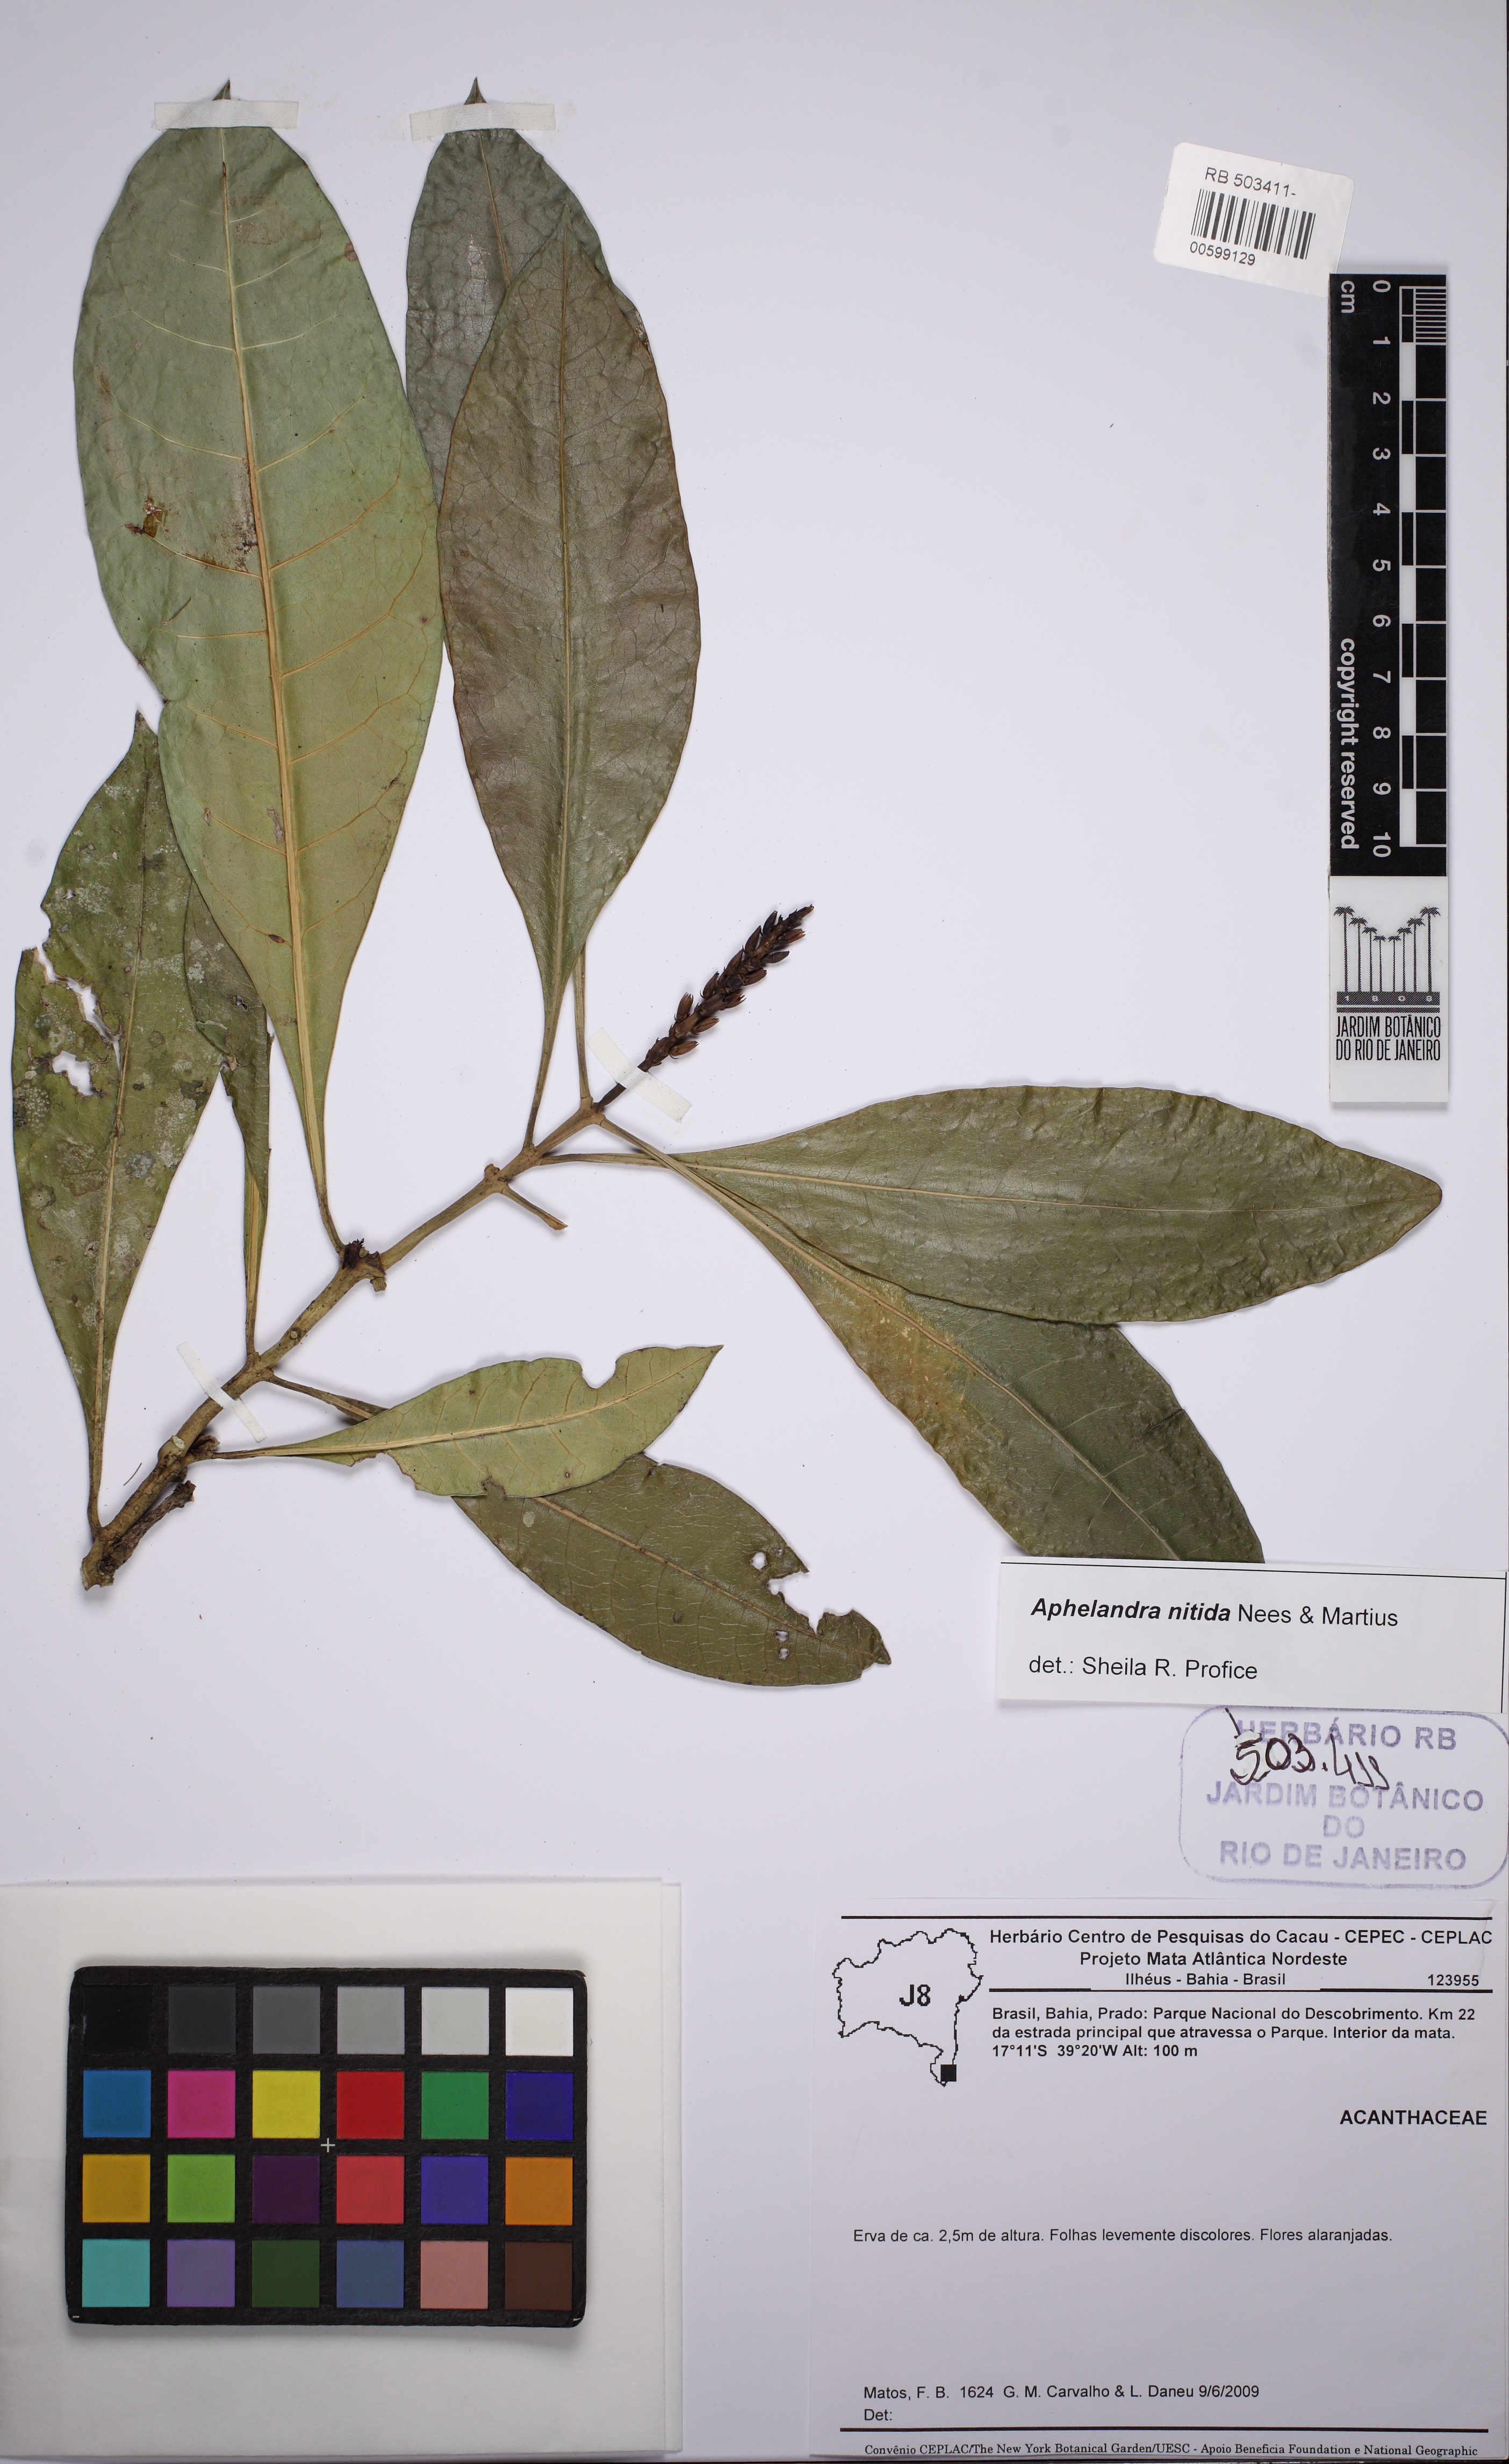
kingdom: Plantae
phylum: Tracheophyta
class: Magnoliopsida
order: Lamiales
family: Acanthaceae
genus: Aphelandra
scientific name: Aphelandra nitida
